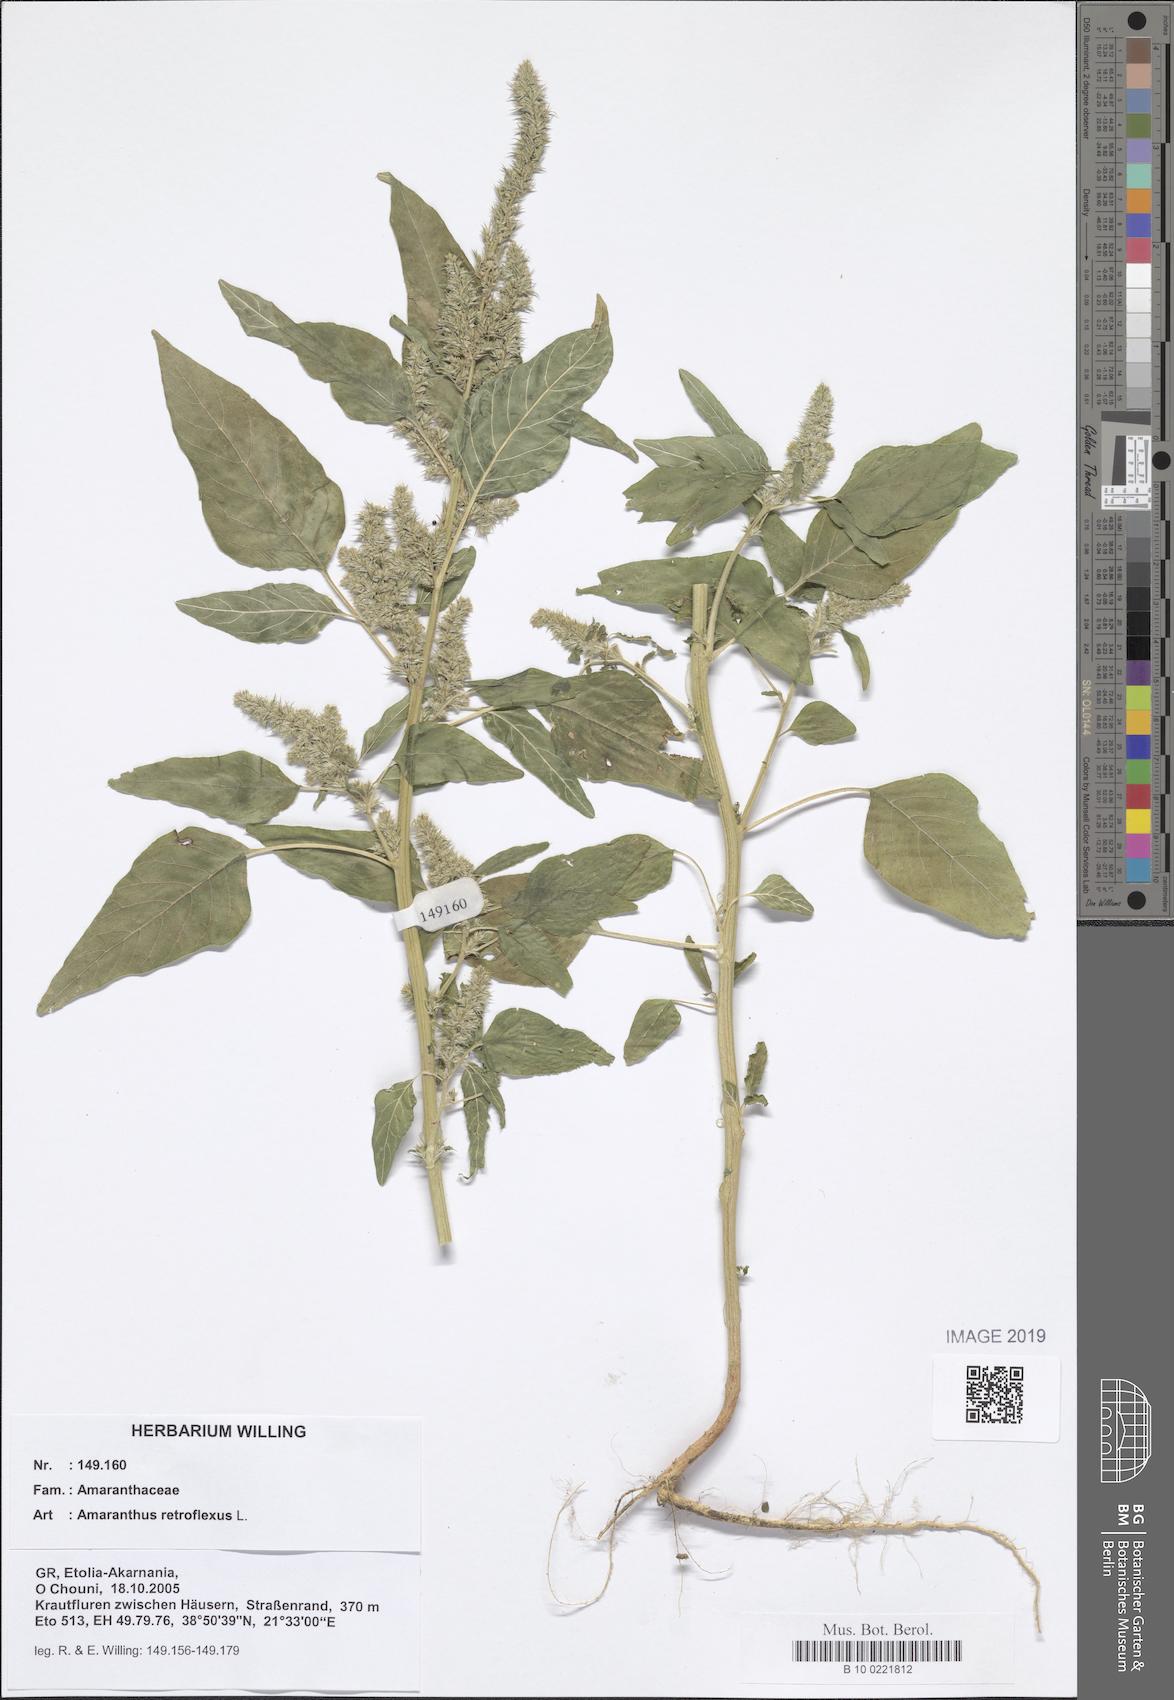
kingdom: Plantae
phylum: Tracheophyta
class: Magnoliopsida
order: Caryophyllales
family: Amaranthaceae
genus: Amaranthus
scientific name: Amaranthus retroflexus
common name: Redroot amaranth
